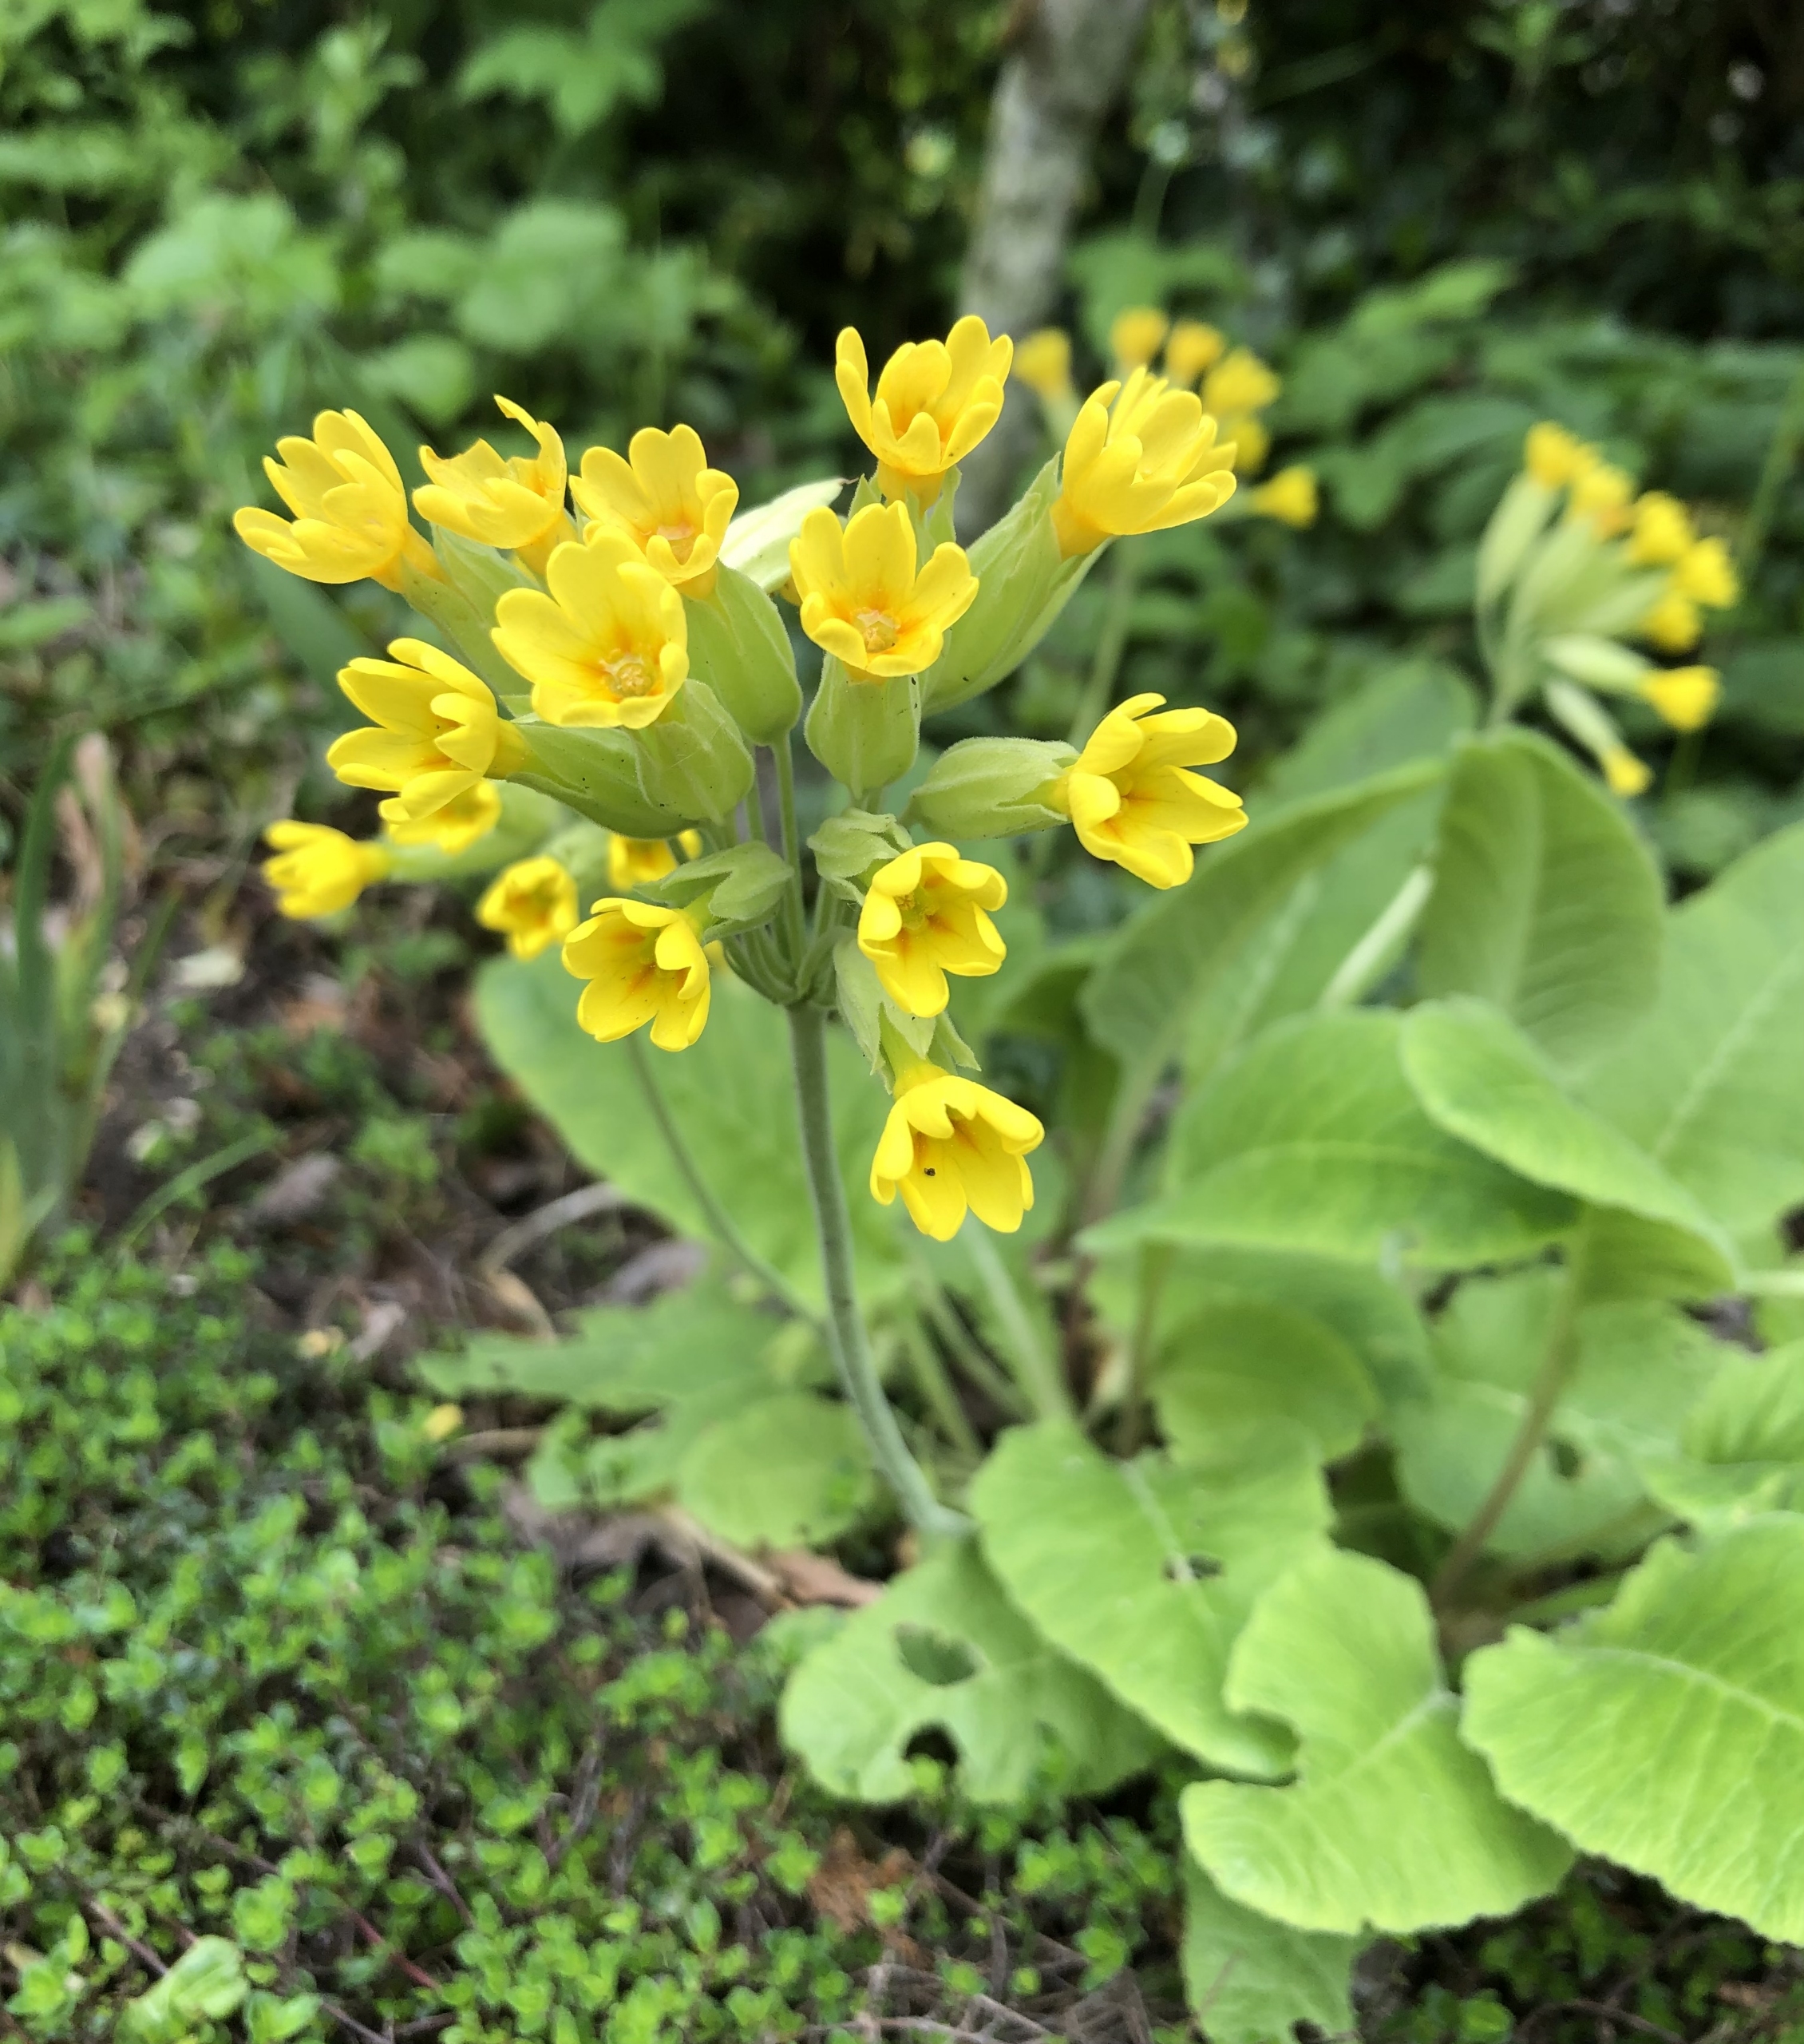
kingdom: Plantae
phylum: Tracheophyta
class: Magnoliopsida
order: Ericales
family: Primulaceae
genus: Primula
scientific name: Primula veris
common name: Hulkravet kodriver
